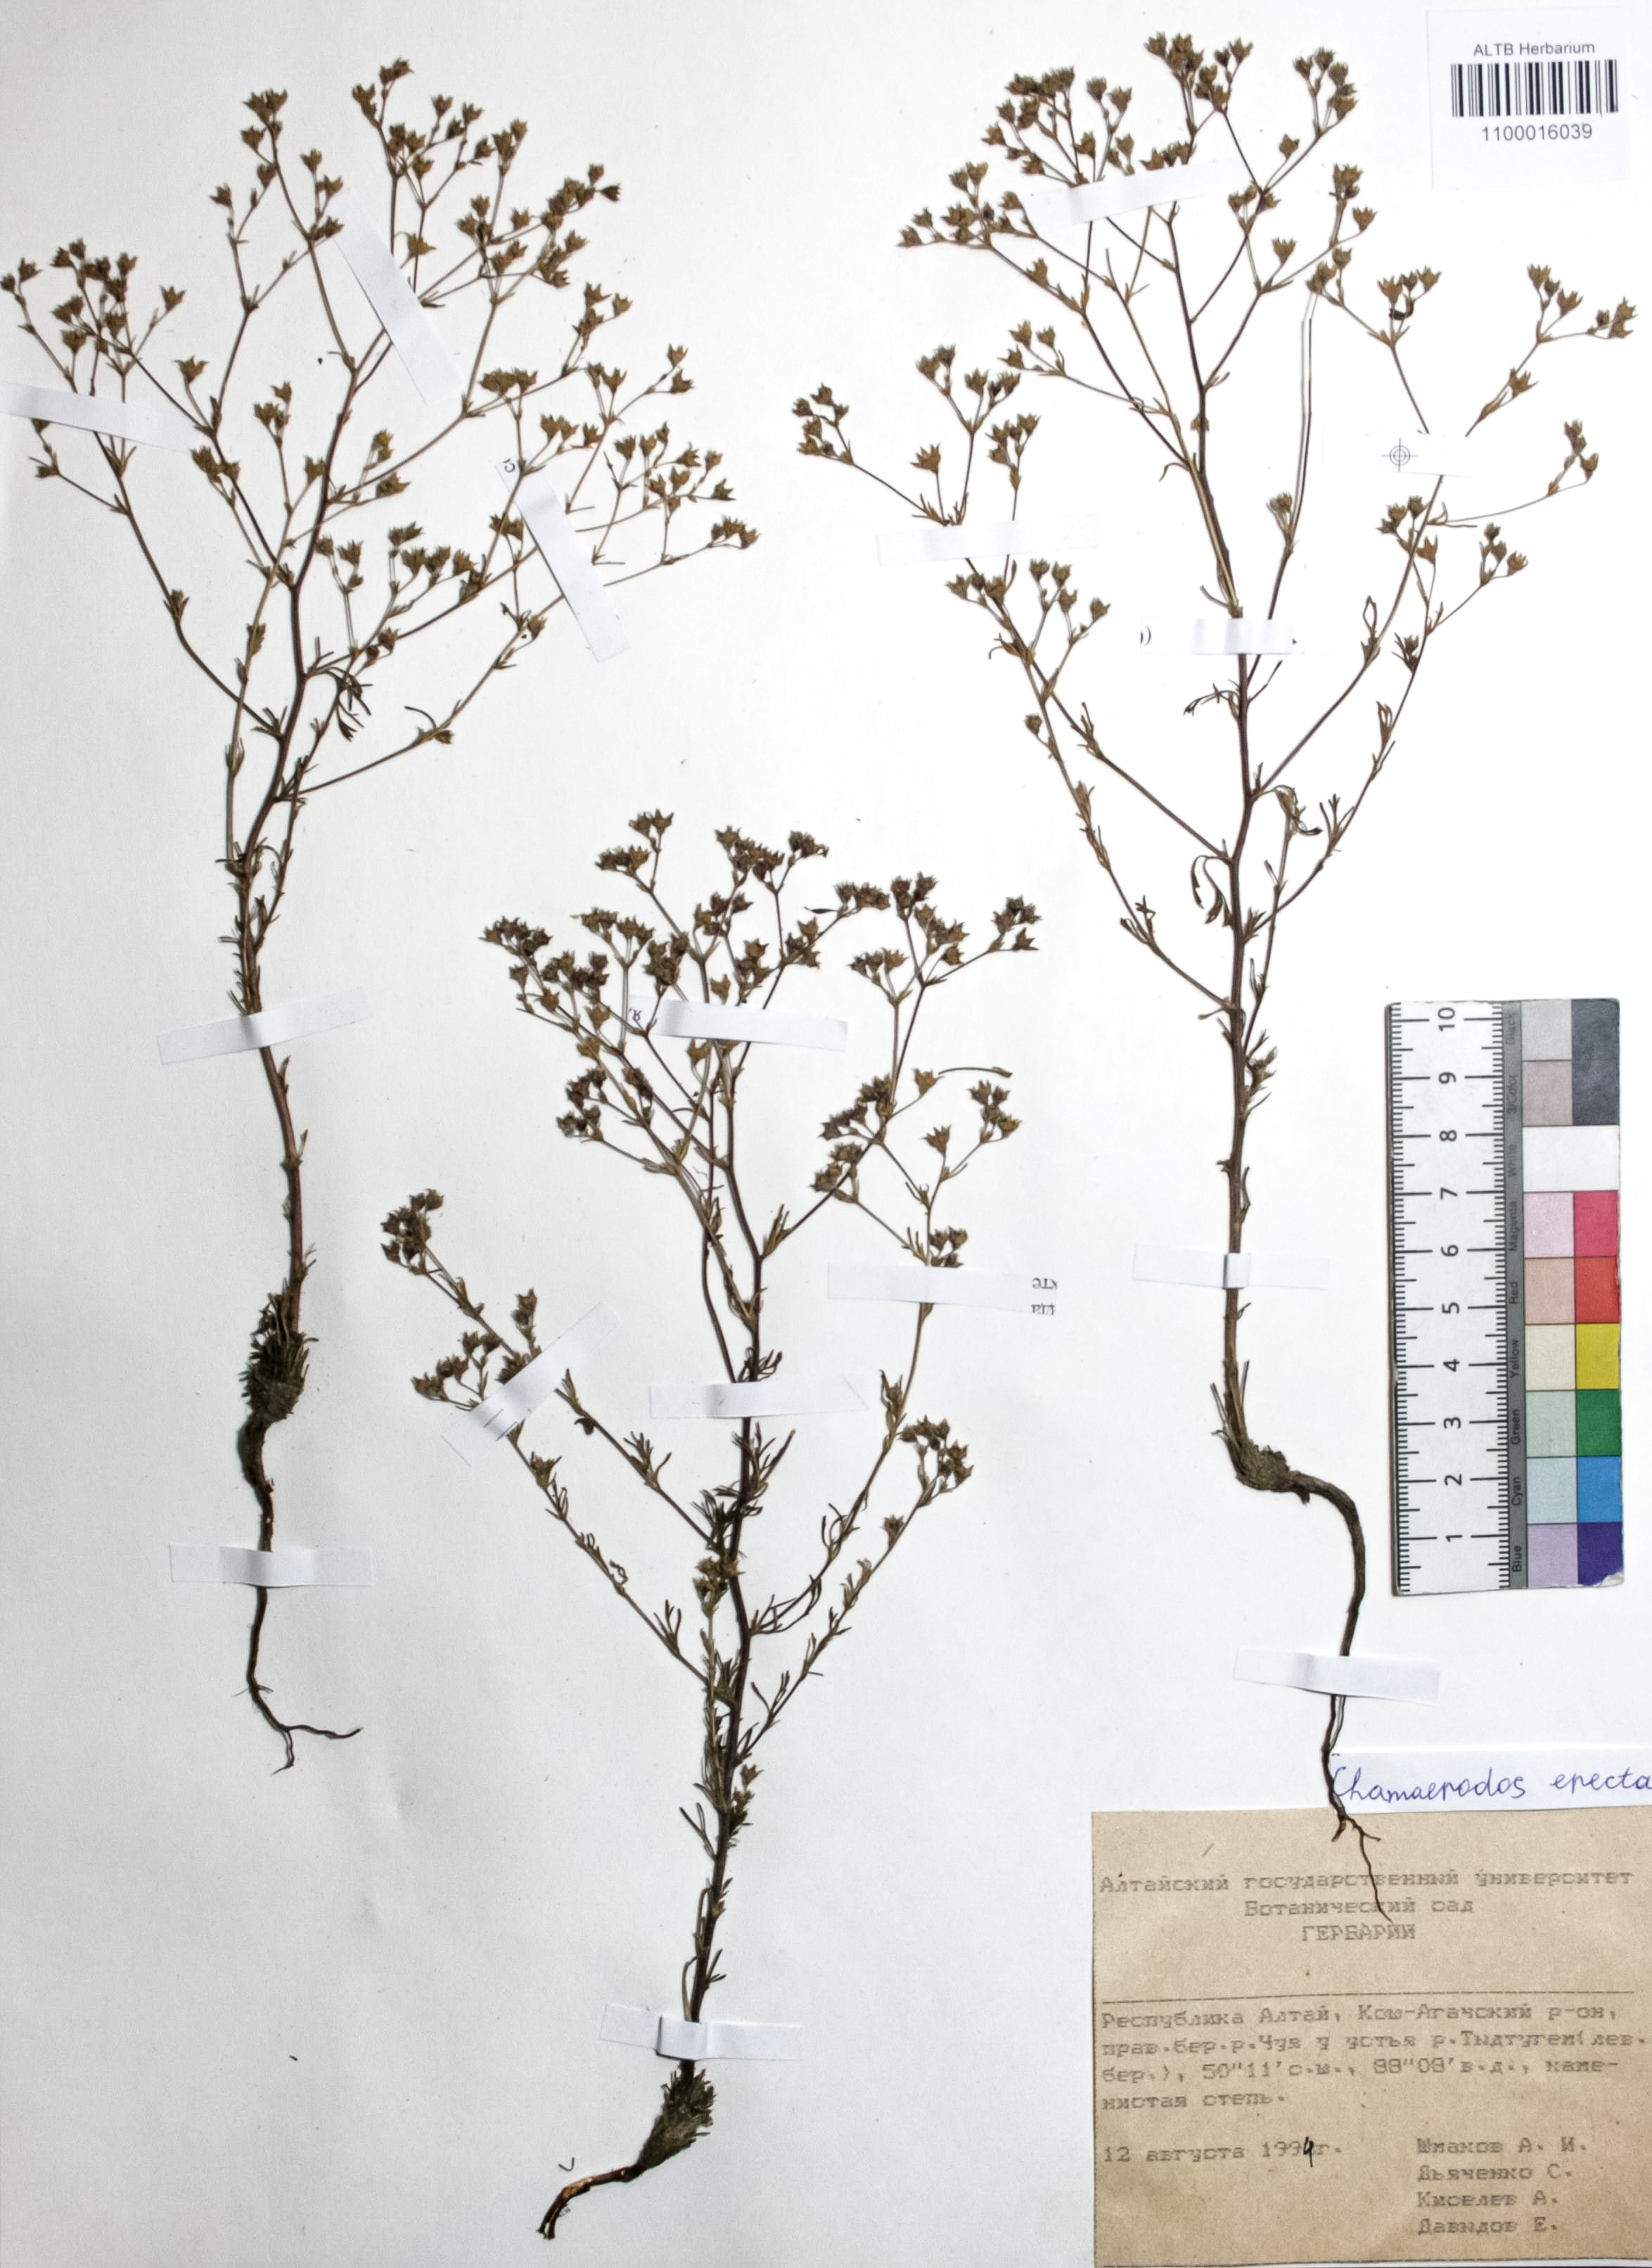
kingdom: Plantae
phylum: Tracheophyta
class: Magnoliopsida
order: Rosales
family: Rosaceae
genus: Chamaerhodos
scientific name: Chamaerhodos erecta
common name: American chamaerhodos
